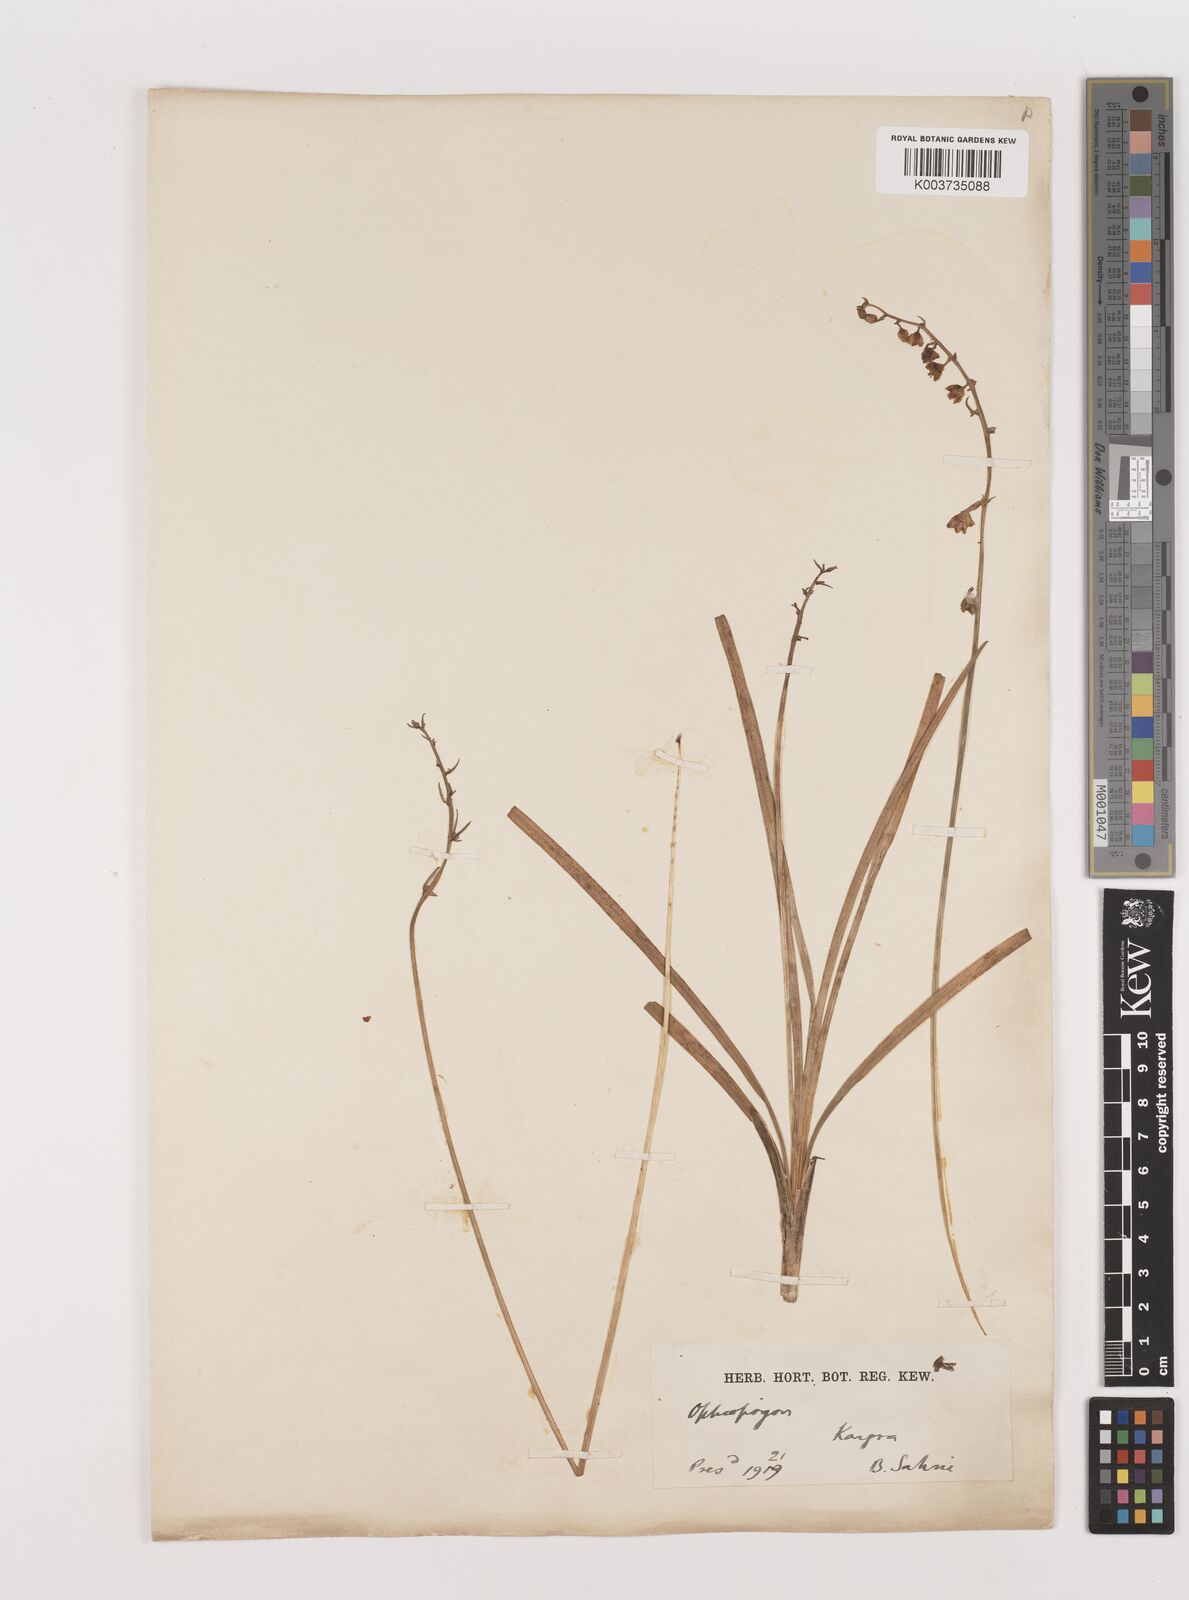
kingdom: Plantae
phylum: Tracheophyta
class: Liliopsida
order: Asparagales
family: Asparagaceae
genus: Ophiopogon
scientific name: Ophiopogon
